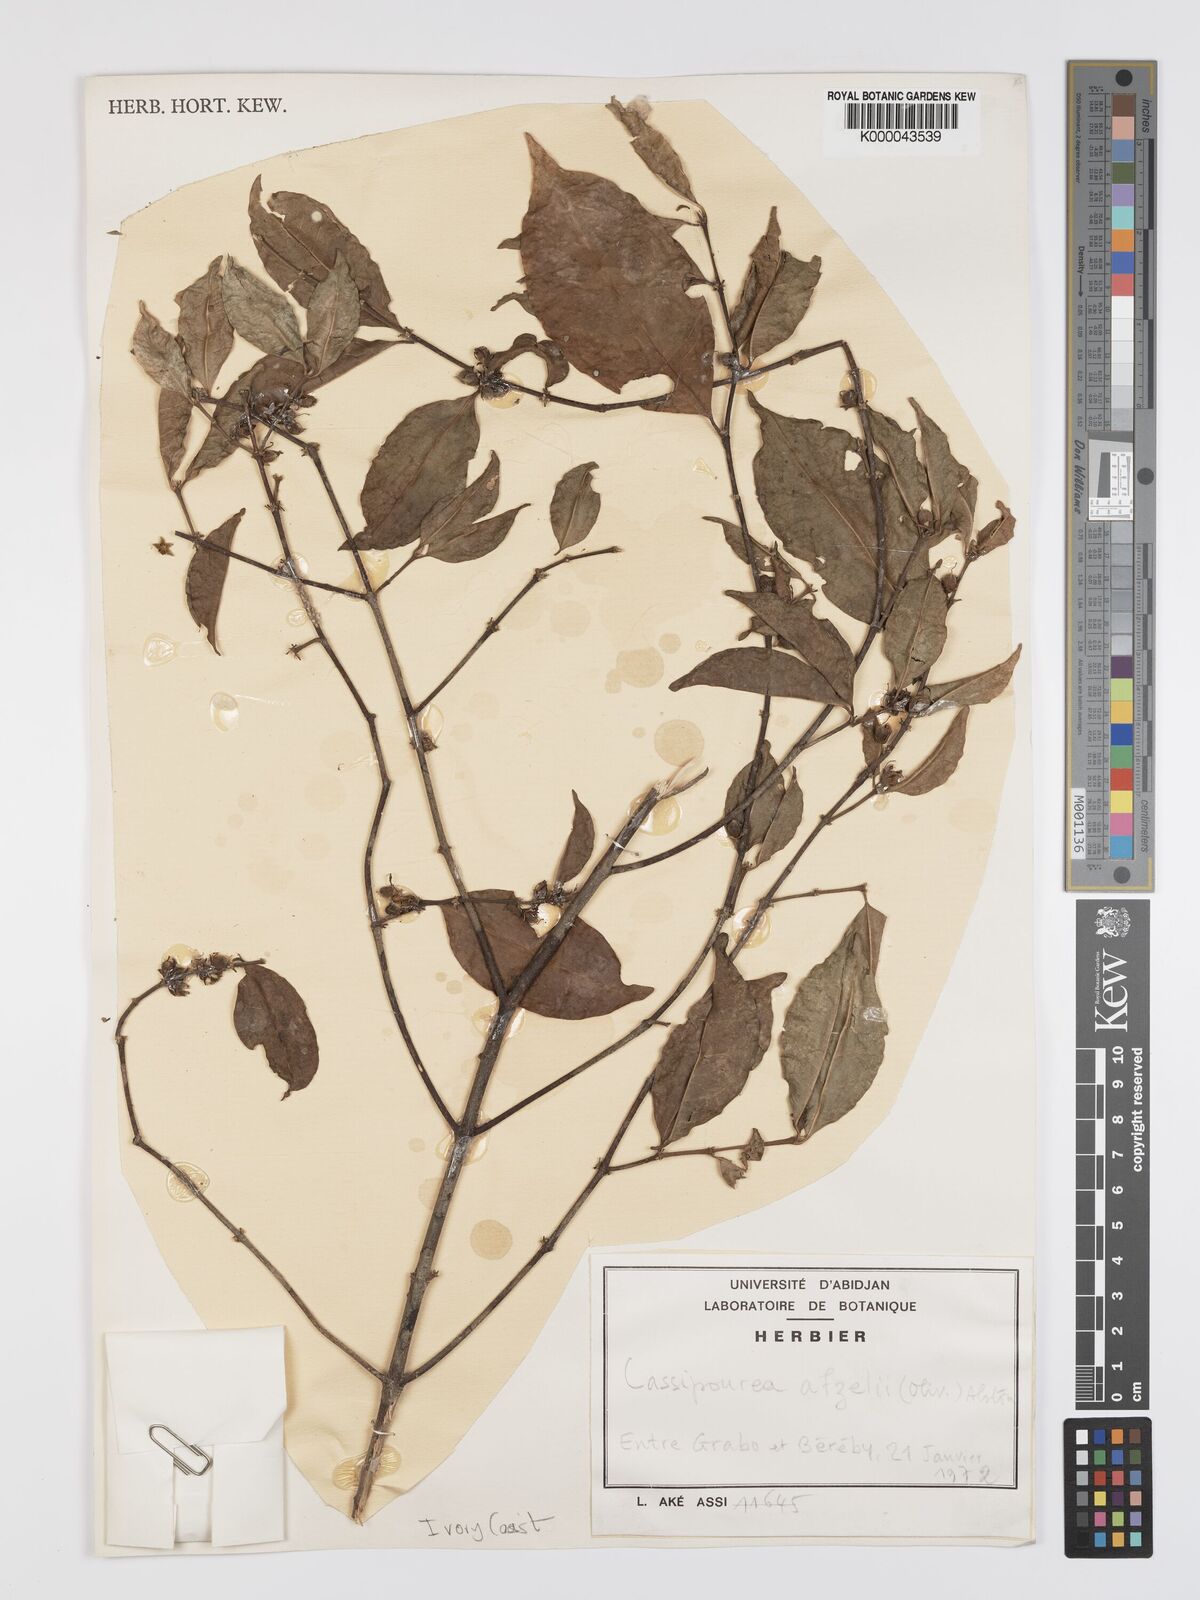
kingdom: Plantae
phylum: Tracheophyta
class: Magnoliopsida
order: Malpighiales
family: Rhizophoraceae
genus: Cassipourea
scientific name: Cassipourea afzelii
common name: Elephant tusk tree
